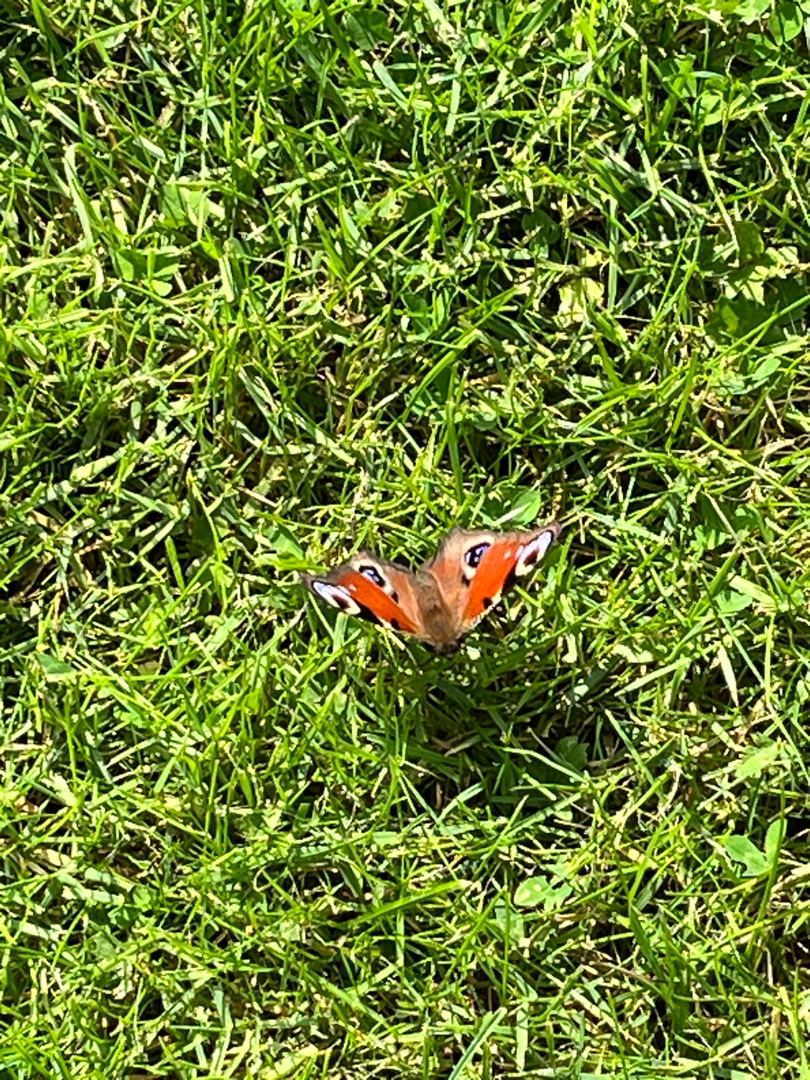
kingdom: Animalia
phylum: Arthropoda
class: Insecta
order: Lepidoptera
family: Nymphalidae
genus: Aglais
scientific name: Aglais io
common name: Dagpåfugleøje
